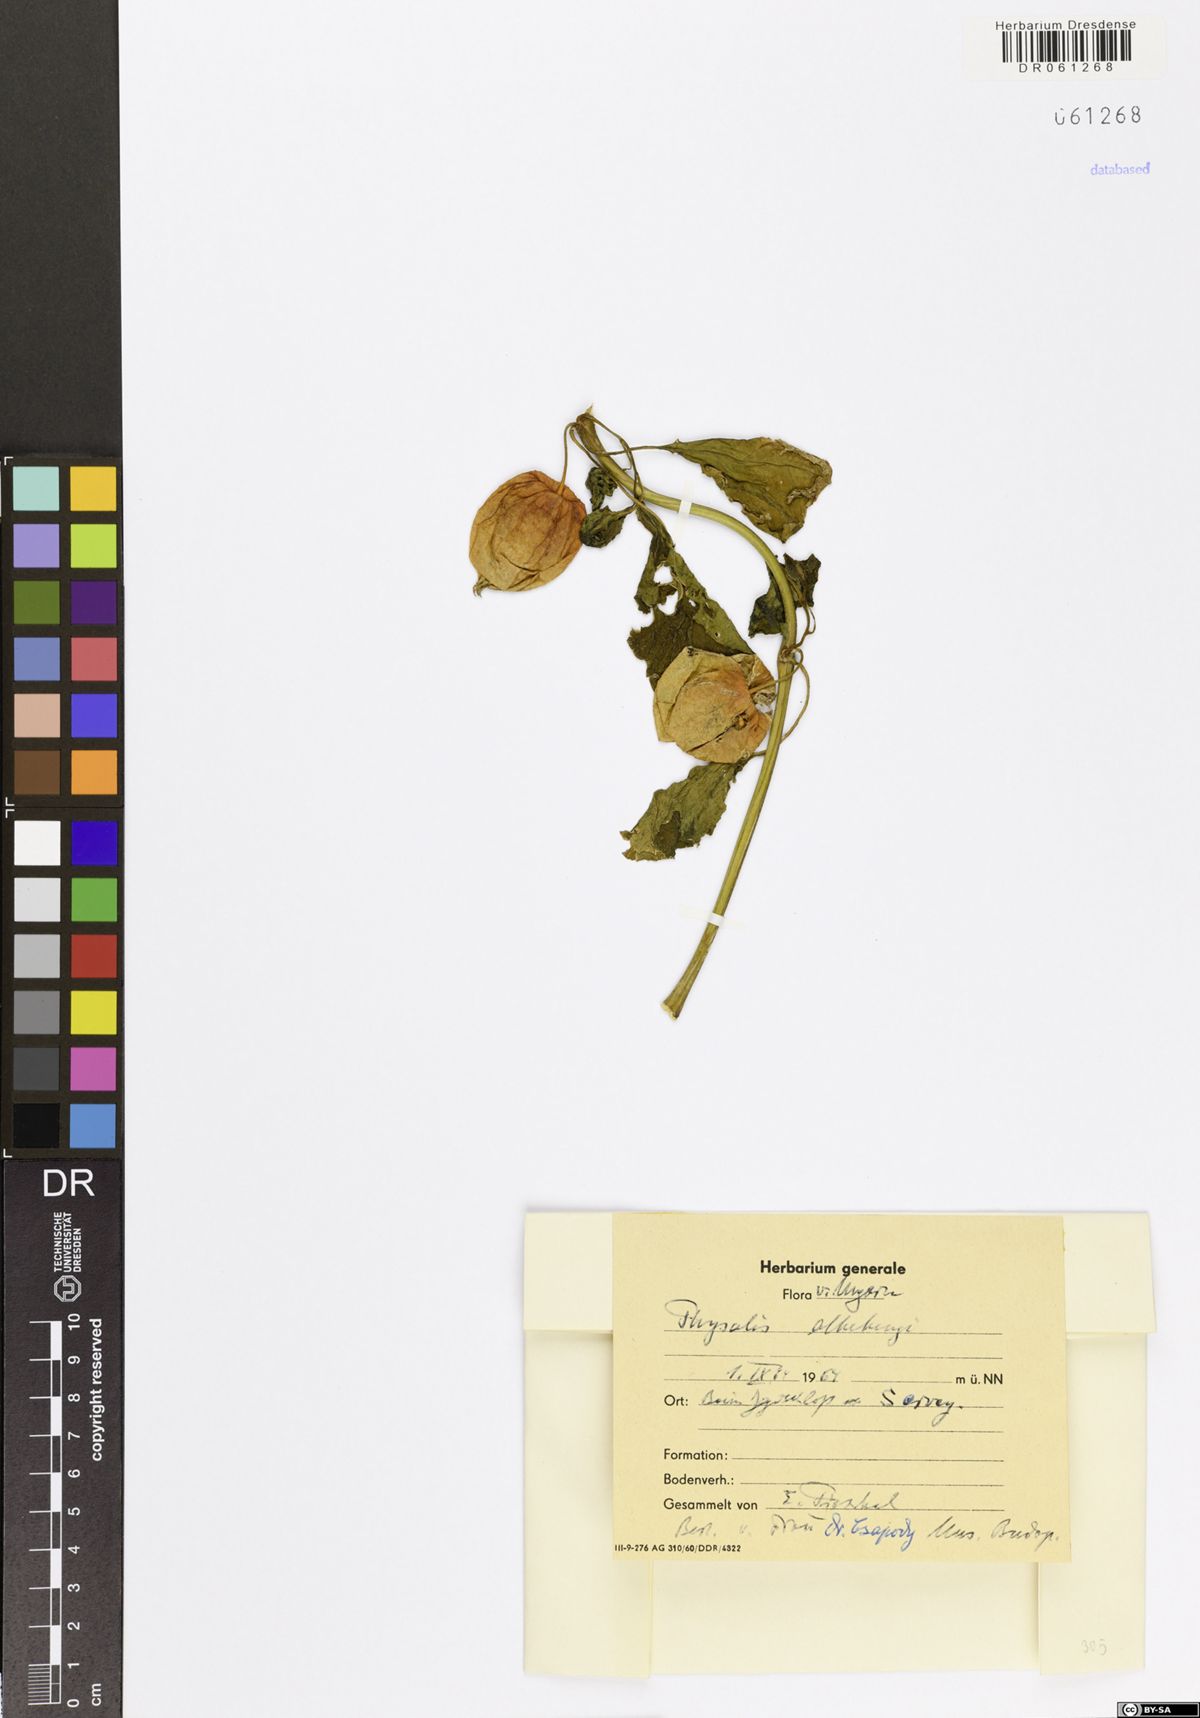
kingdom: Plantae
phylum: Tracheophyta
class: Magnoliopsida
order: Solanales
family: Solanaceae
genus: Alkekengi
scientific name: Alkekengi officinarum
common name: Japanese-lantern
